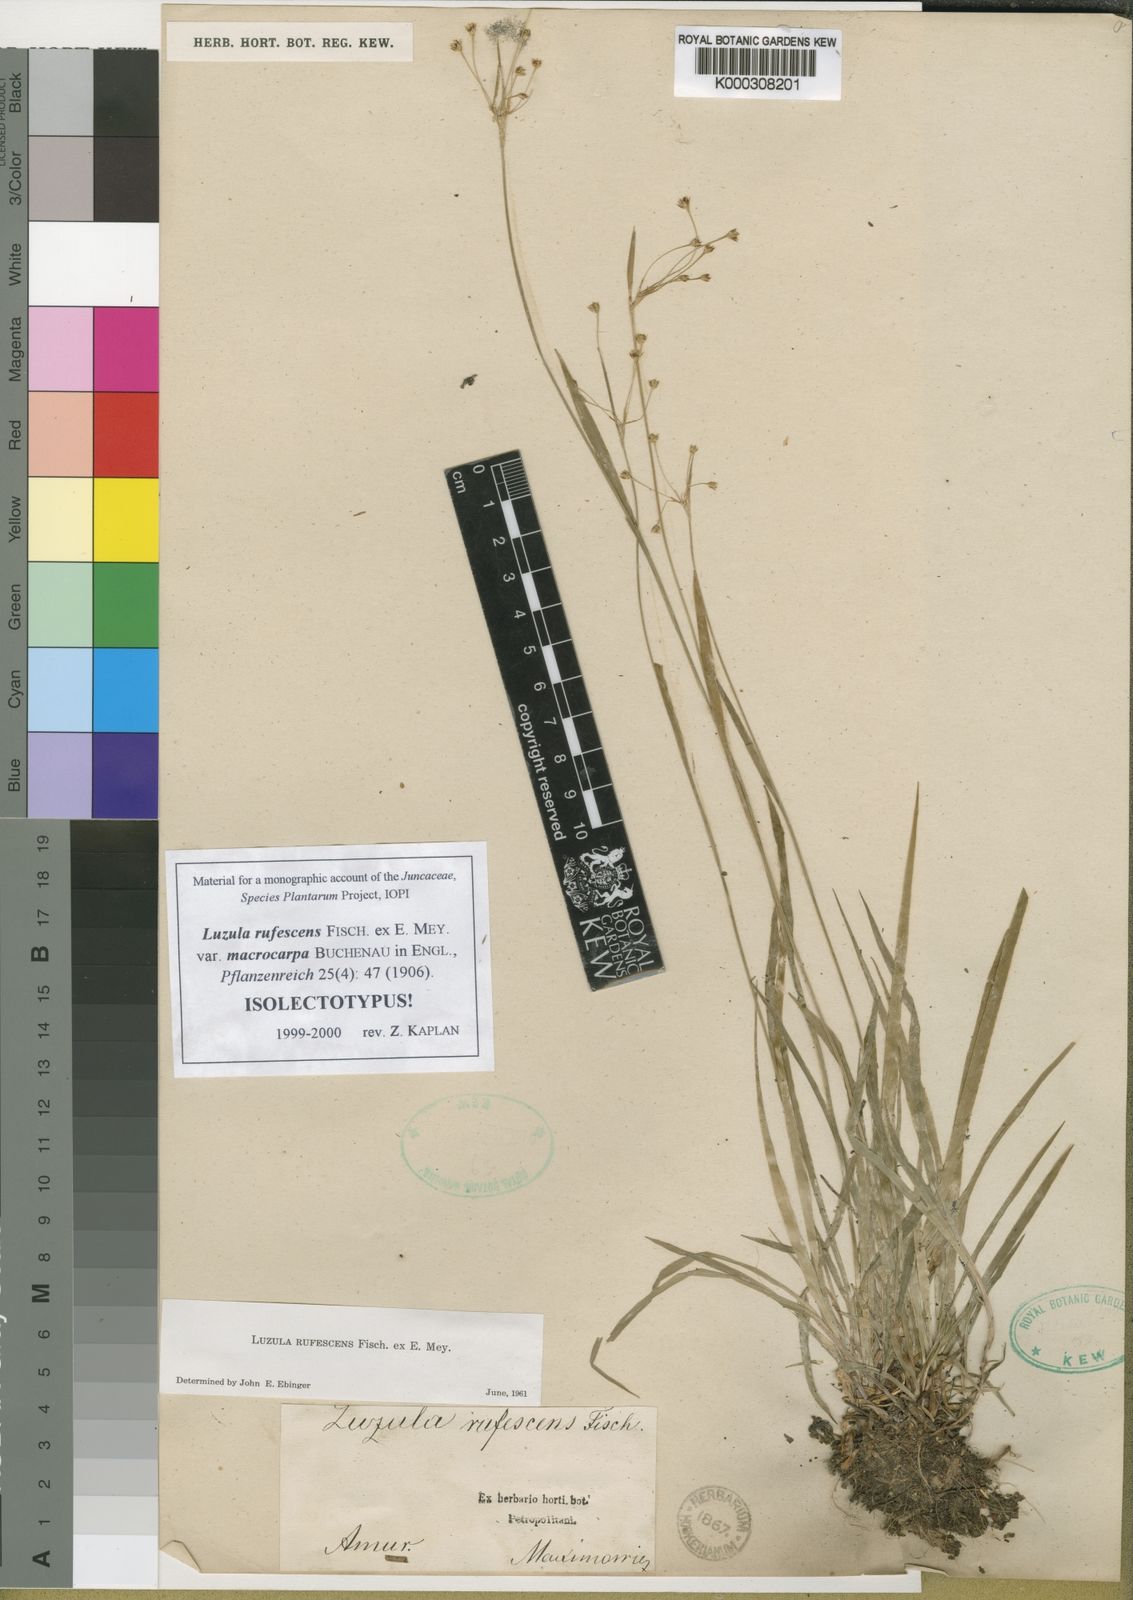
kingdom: Plantae
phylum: Tracheophyta
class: Liliopsida
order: Poales
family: Juncaceae
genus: Luzula
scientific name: Luzula rufescens
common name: Reddish woodrush
